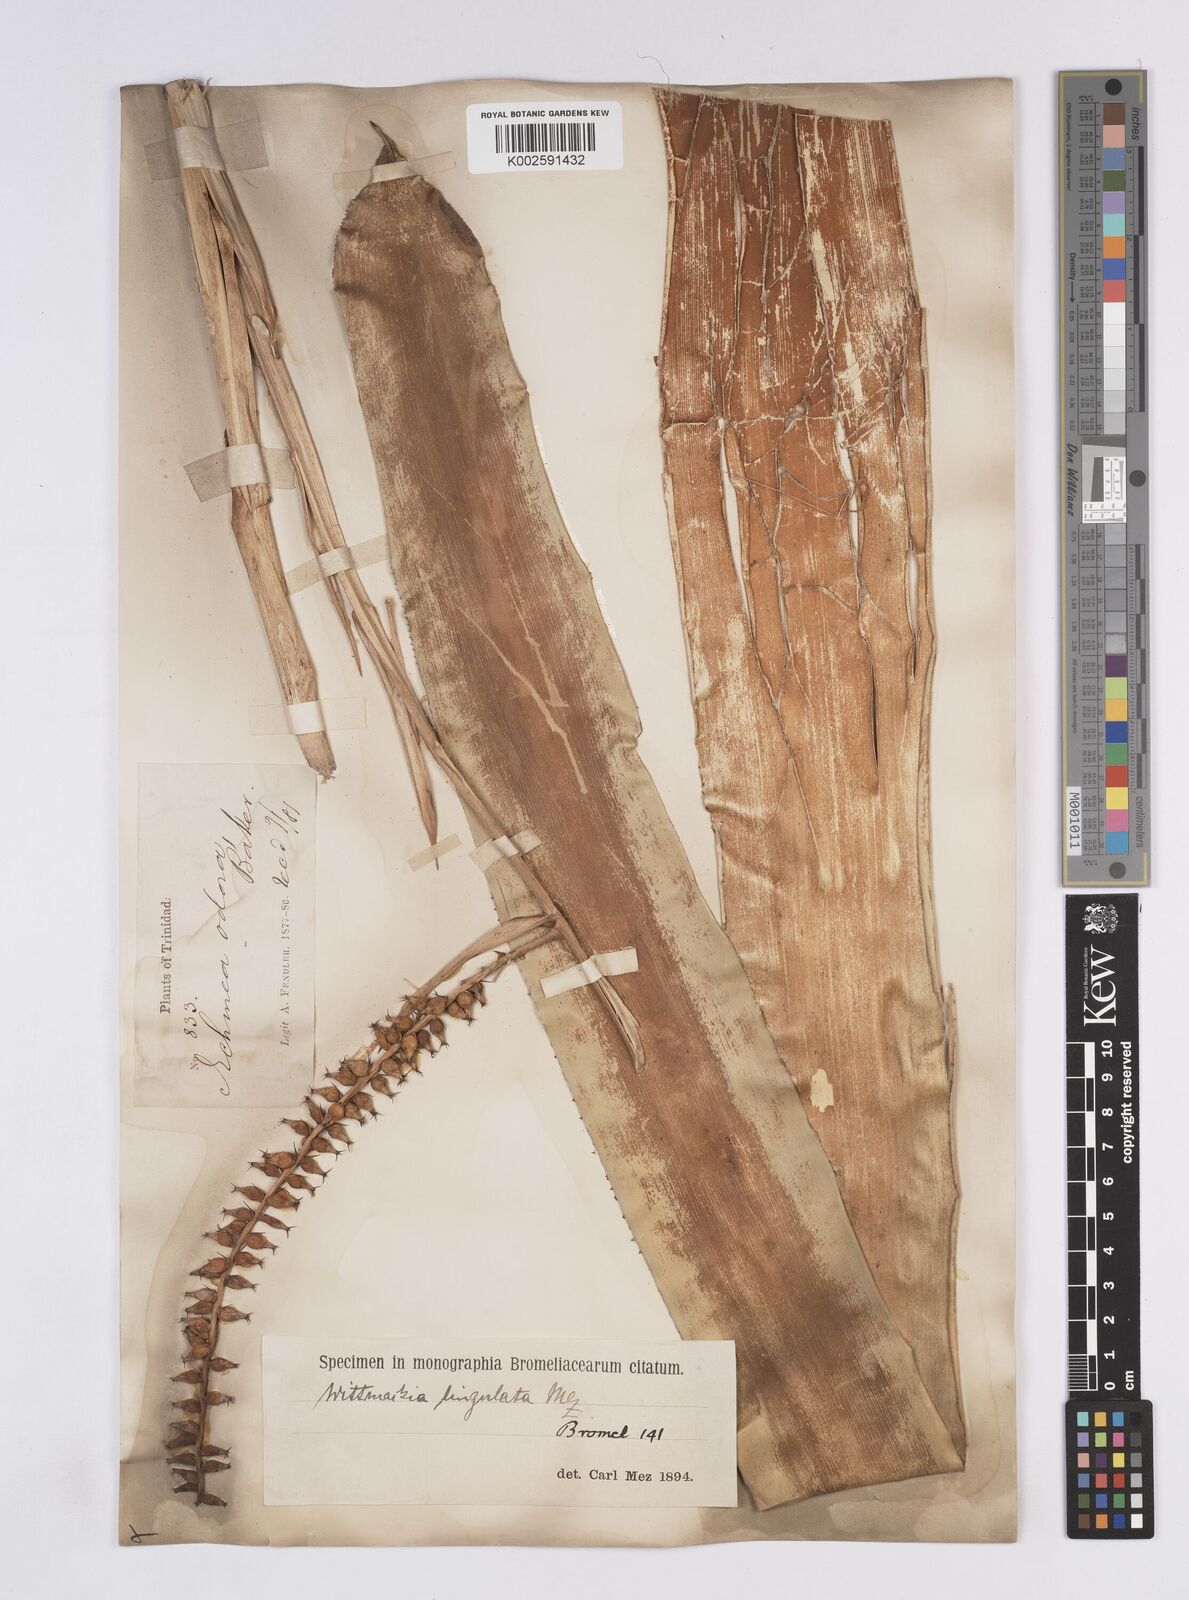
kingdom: Plantae
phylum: Tracheophyta
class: Liliopsida
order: Poales
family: Bromeliaceae
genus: Wittmackia
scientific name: Wittmackia lingulata
